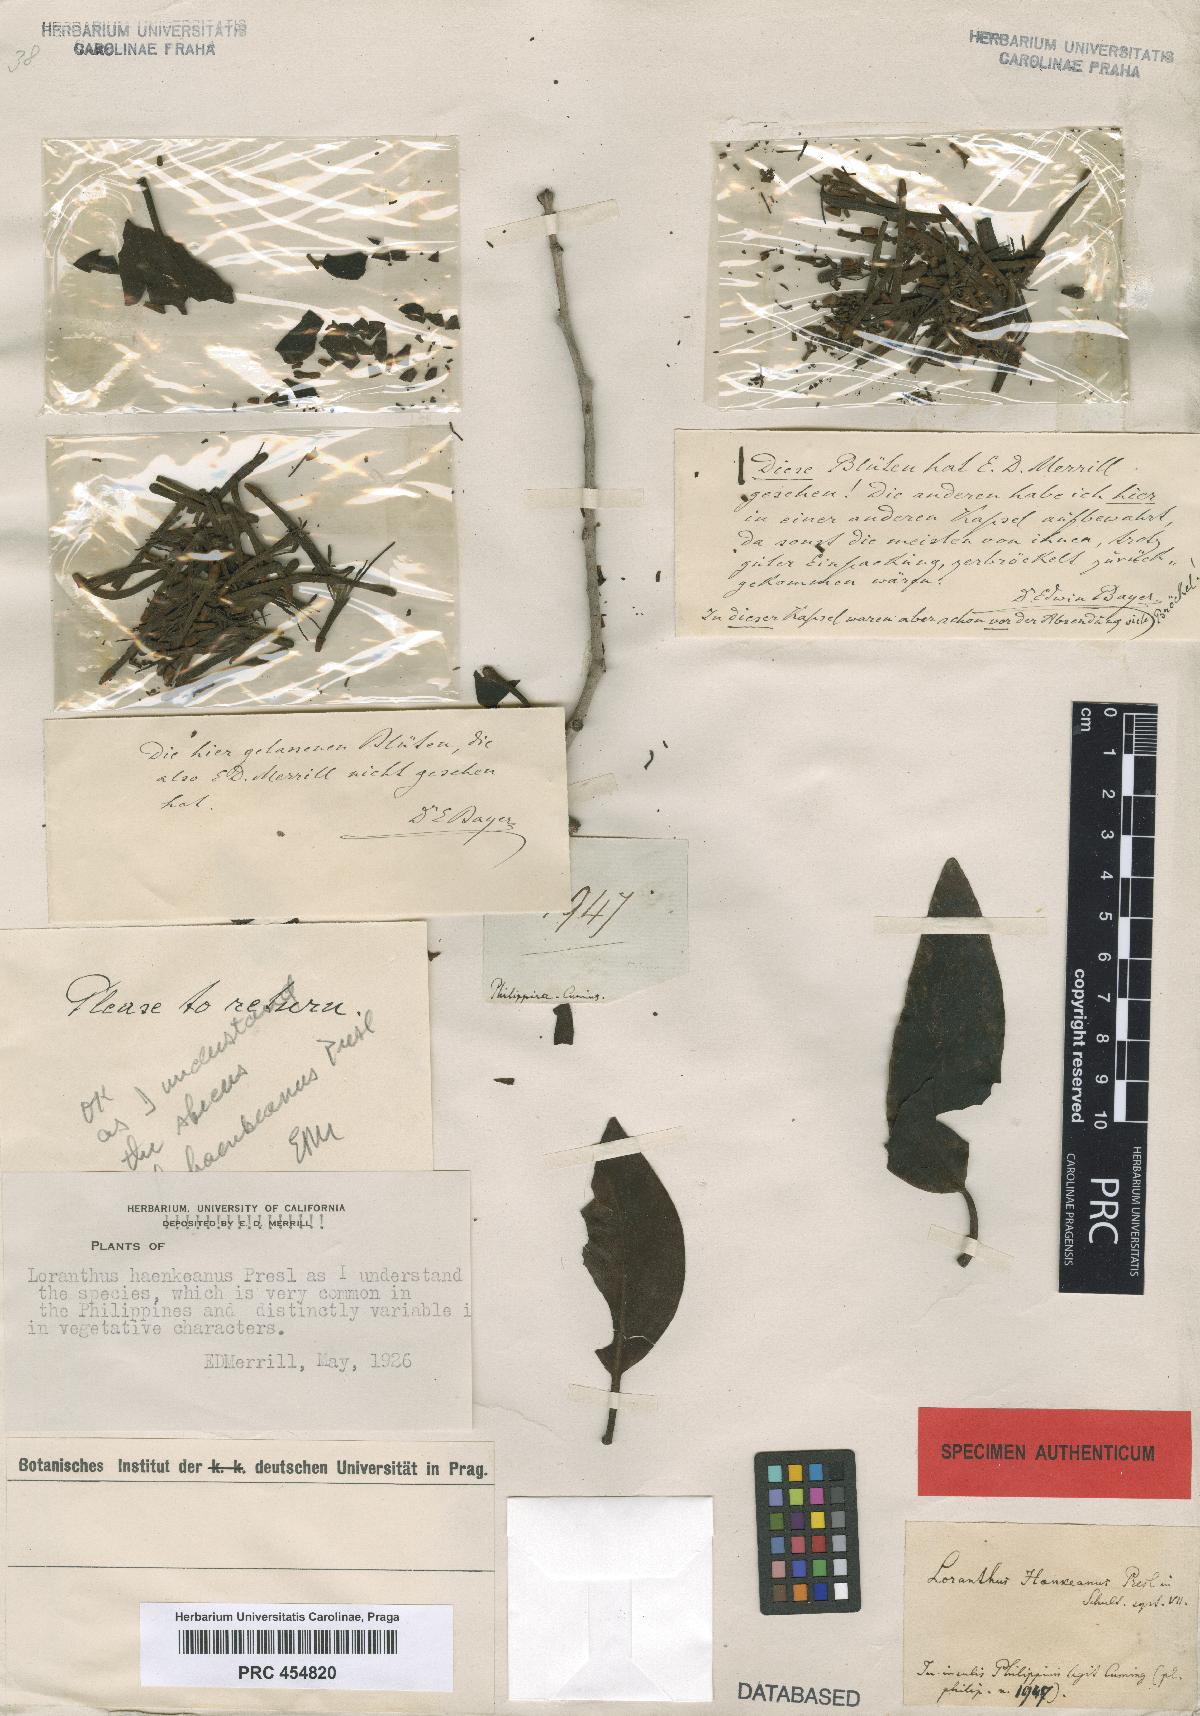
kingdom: Plantae
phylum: Tracheophyta
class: Magnoliopsida
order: Santalales
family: Loranthaceae
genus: Amyema
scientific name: Amyema haenkeana
